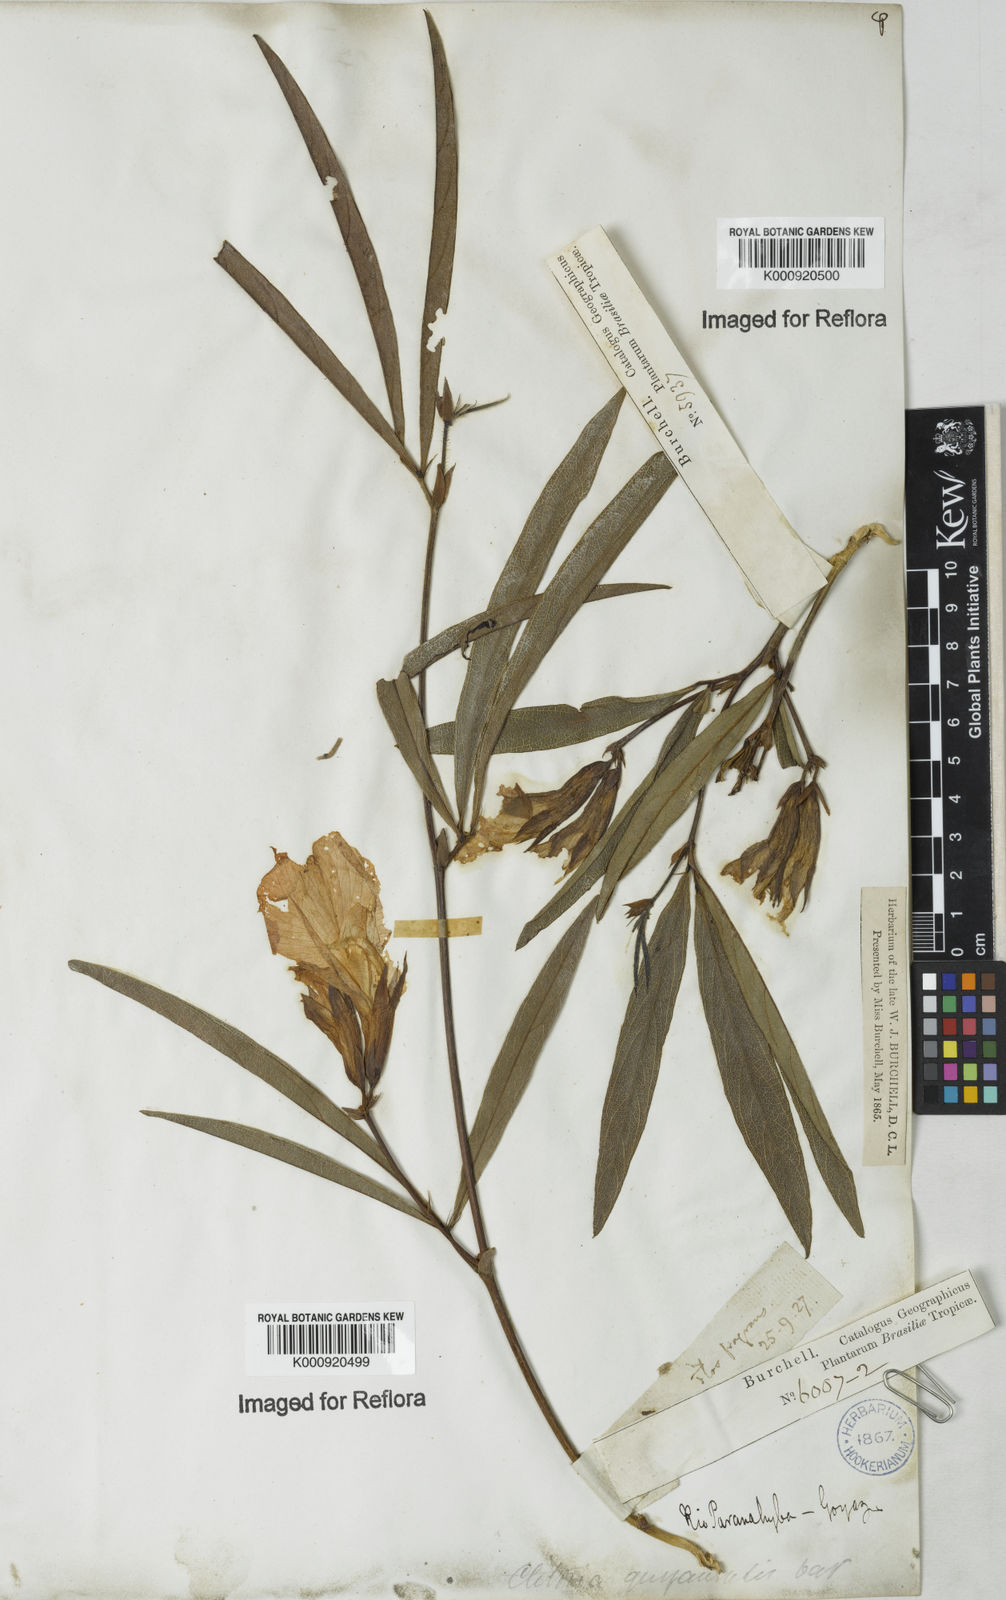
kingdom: Plantae
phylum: Tracheophyta
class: Magnoliopsida
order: Fabales
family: Fabaceae
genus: Clitoria
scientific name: Clitoria guianensis
